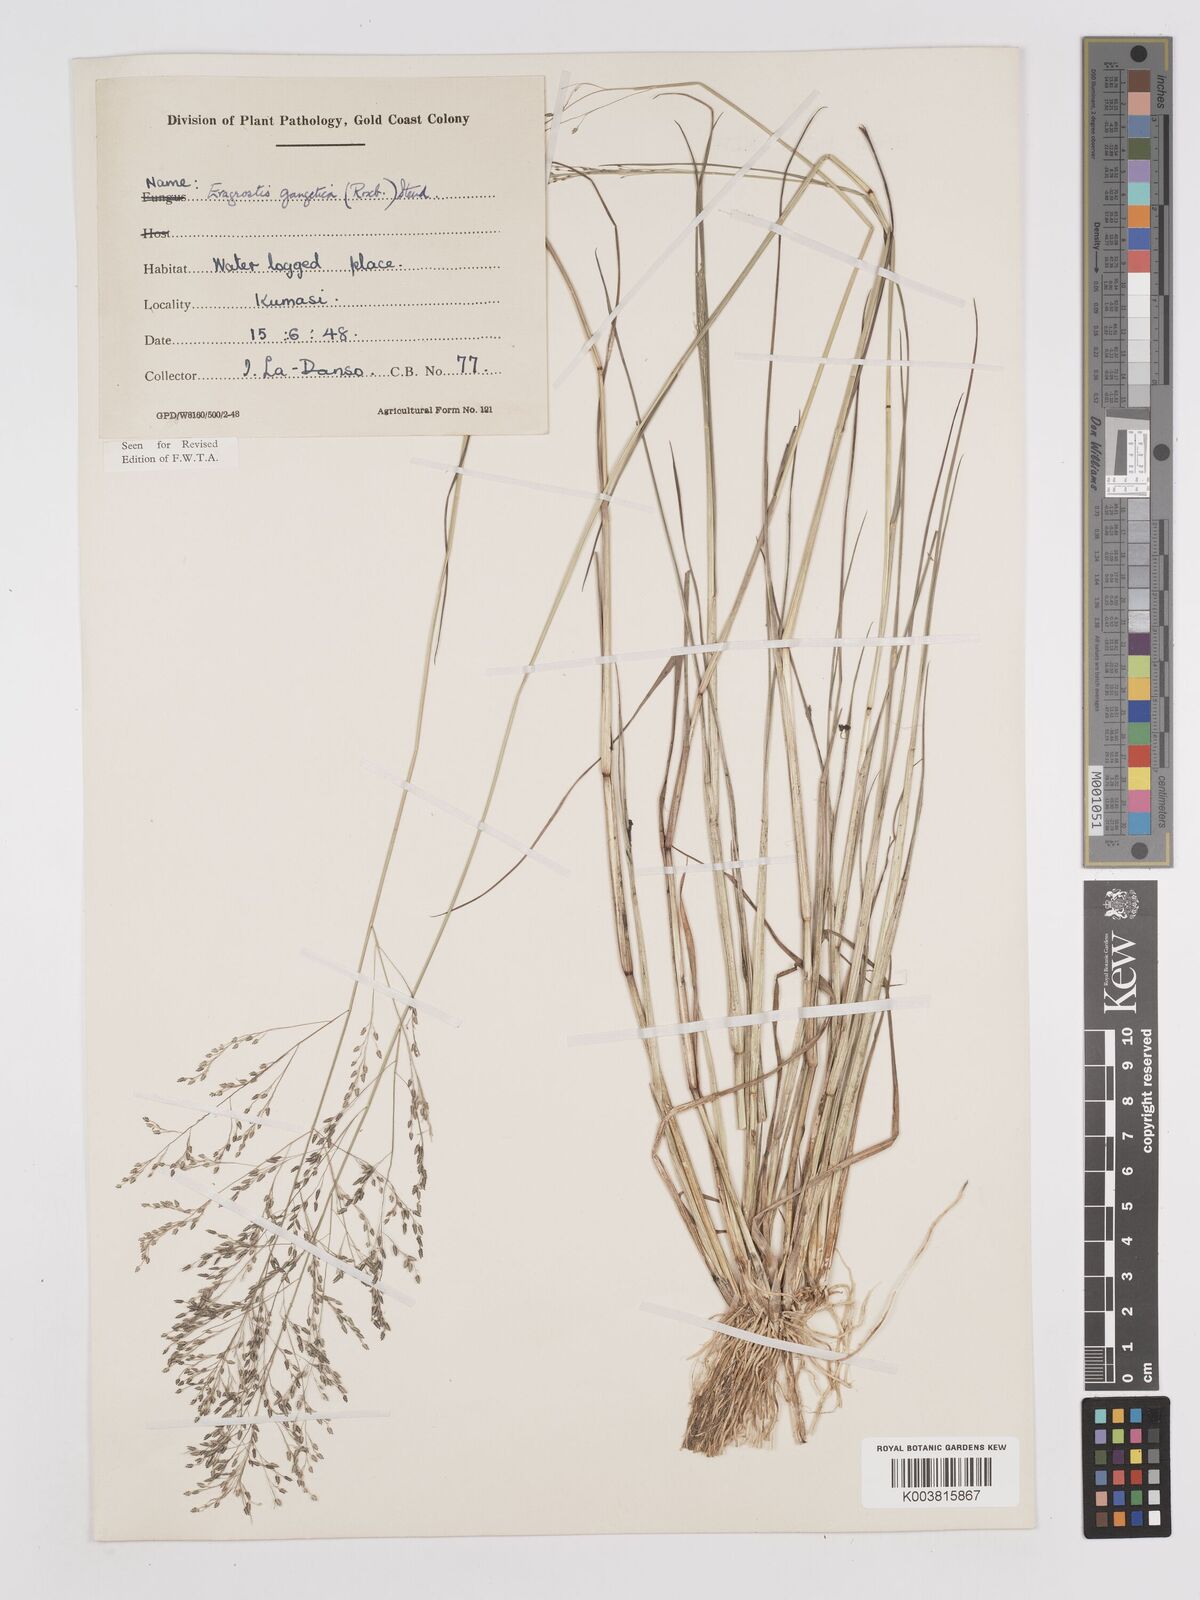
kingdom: Plantae
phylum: Tracheophyta
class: Liliopsida
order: Poales
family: Poaceae
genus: Eragrostis
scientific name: Eragrostis gangetica
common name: Slimflower lovegrass
